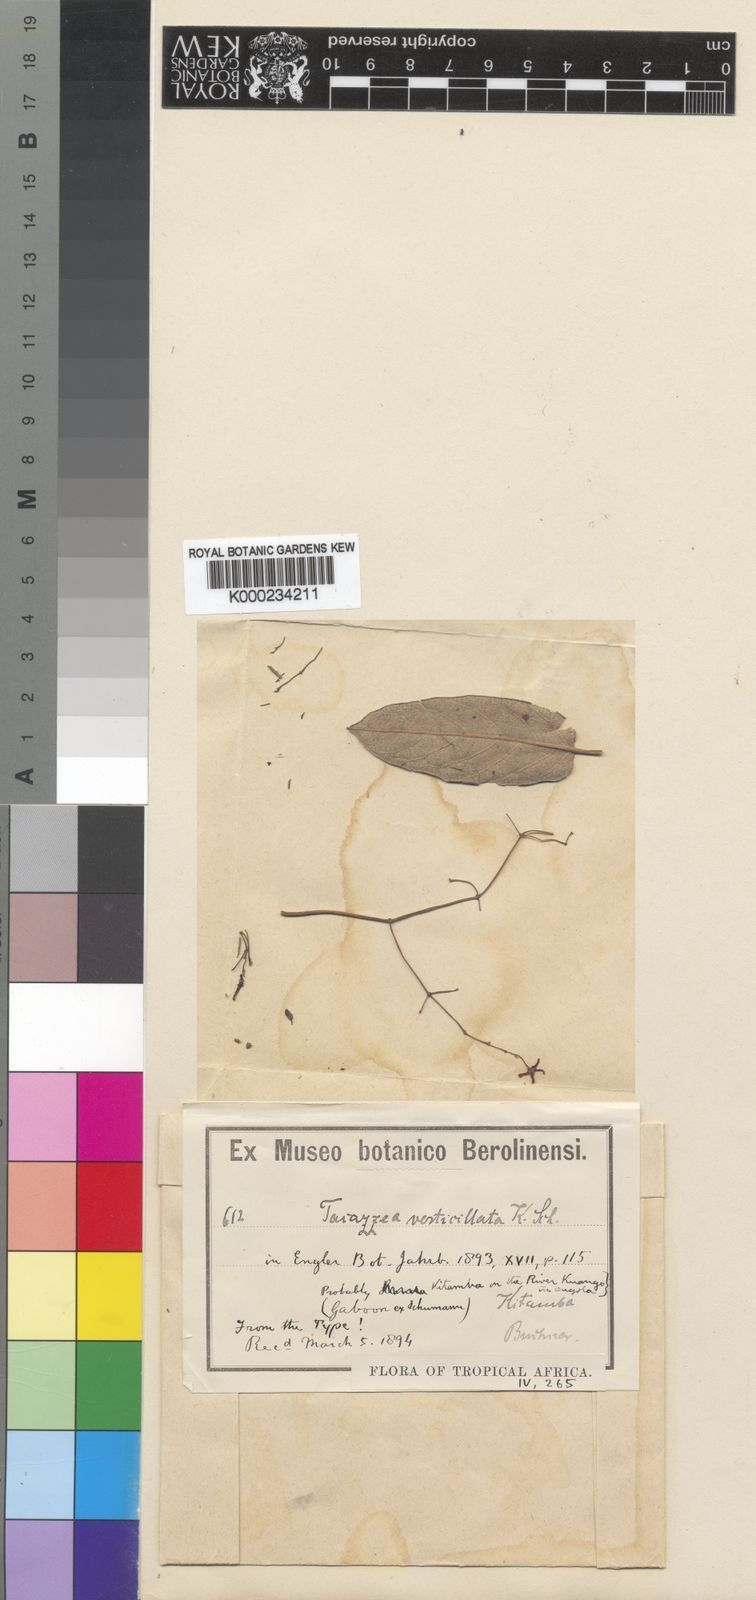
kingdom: Plantae
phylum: Tracheophyta
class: Magnoliopsida
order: Gentianales
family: Apocynaceae
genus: Tacazzea
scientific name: Tacazzea conferta
